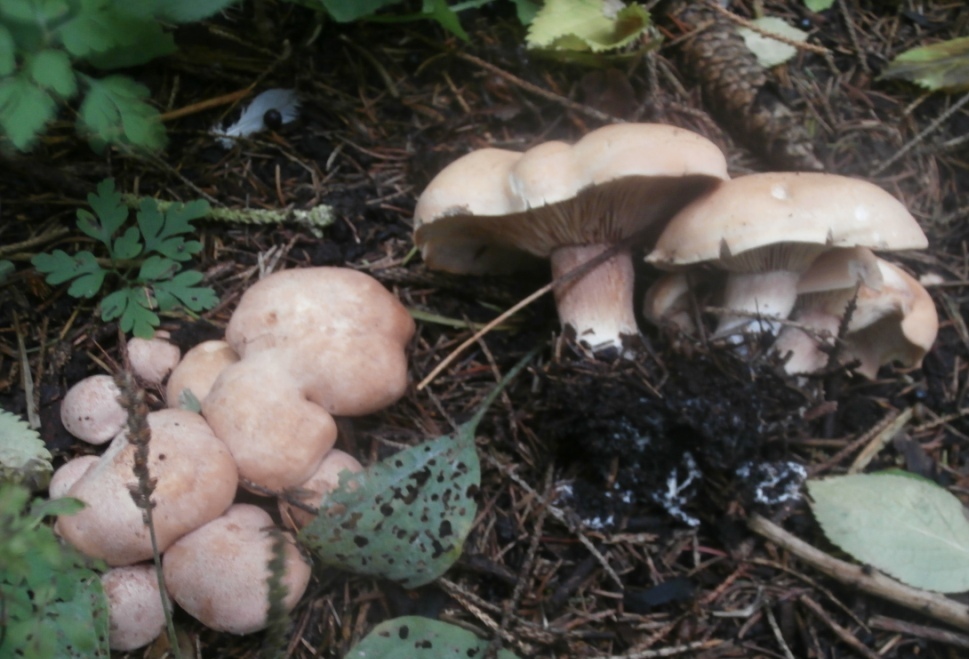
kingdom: Fungi
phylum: Basidiomycota
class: Agaricomycetes
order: Agaricales
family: Entolomataceae
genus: Clitopilus
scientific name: Clitopilus geminus
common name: kødfarvet troldhat
